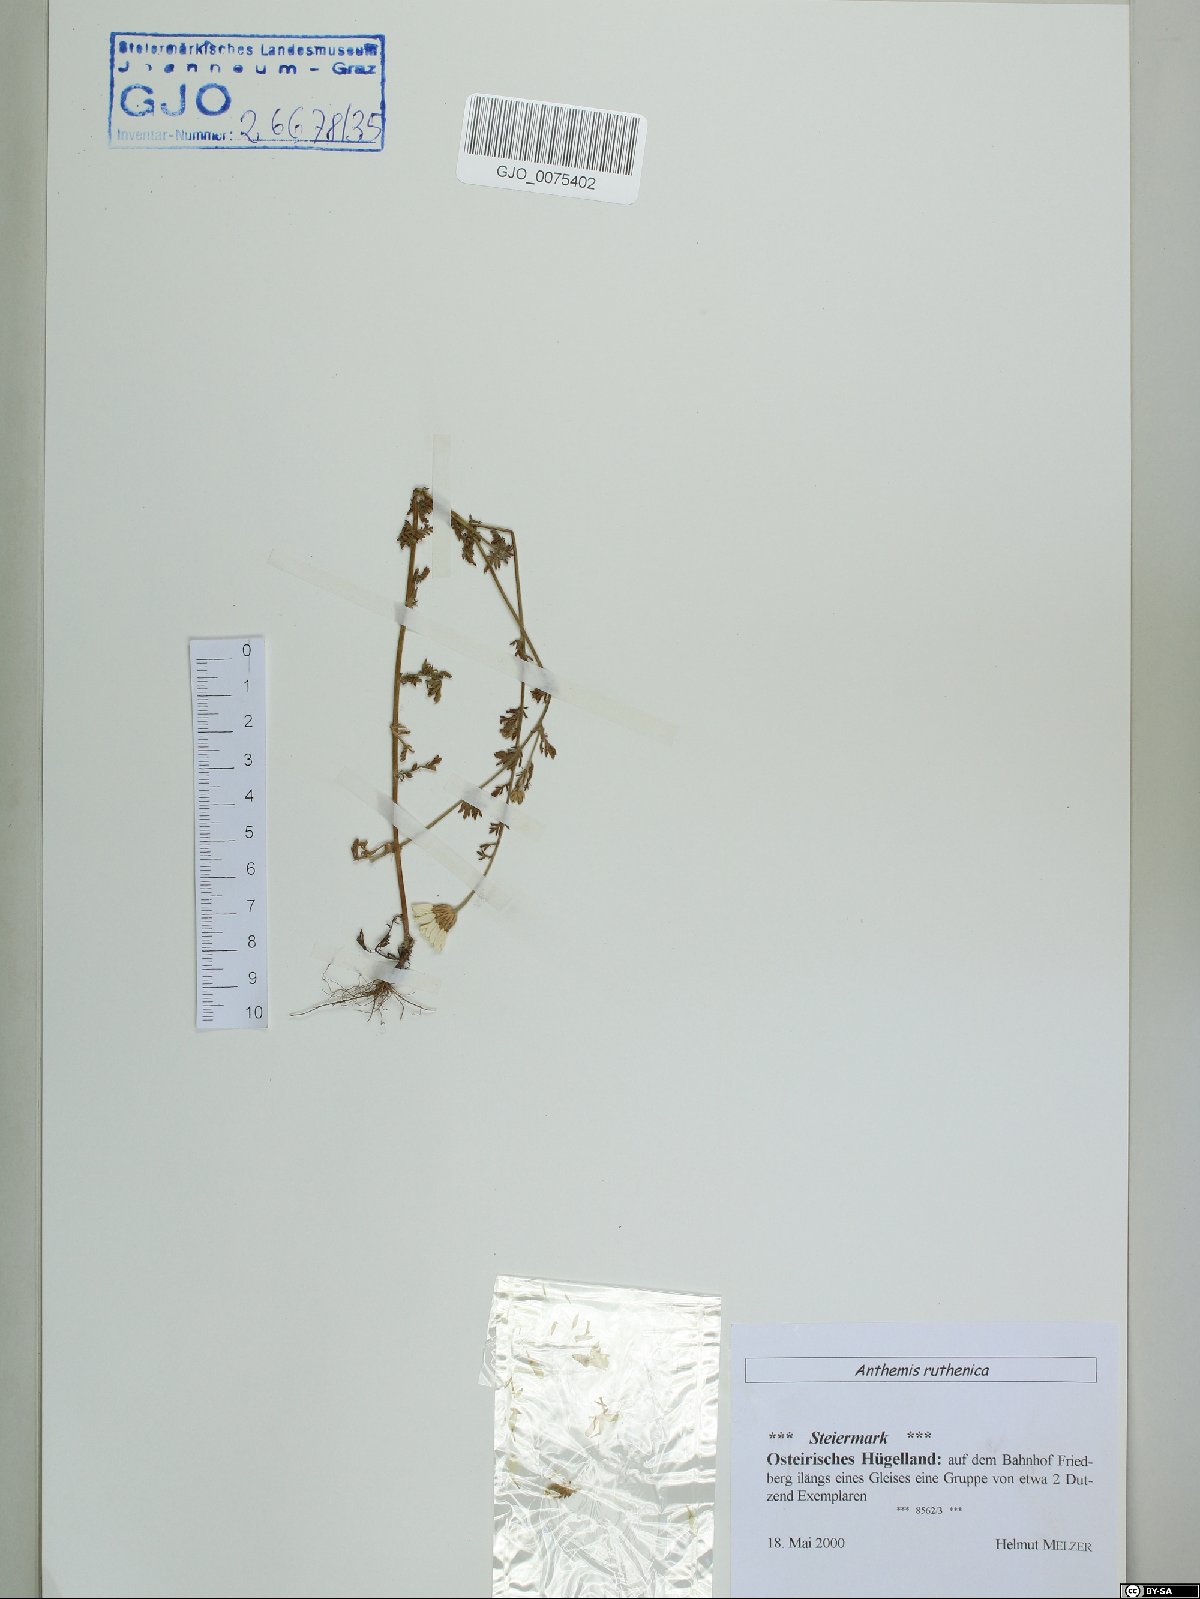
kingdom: Plantae
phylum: Tracheophyta
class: Magnoliopsida
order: Asterales
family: Asteraceae
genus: Anthemis
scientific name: Anthemis ruthenica
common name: Eastern chamomile
